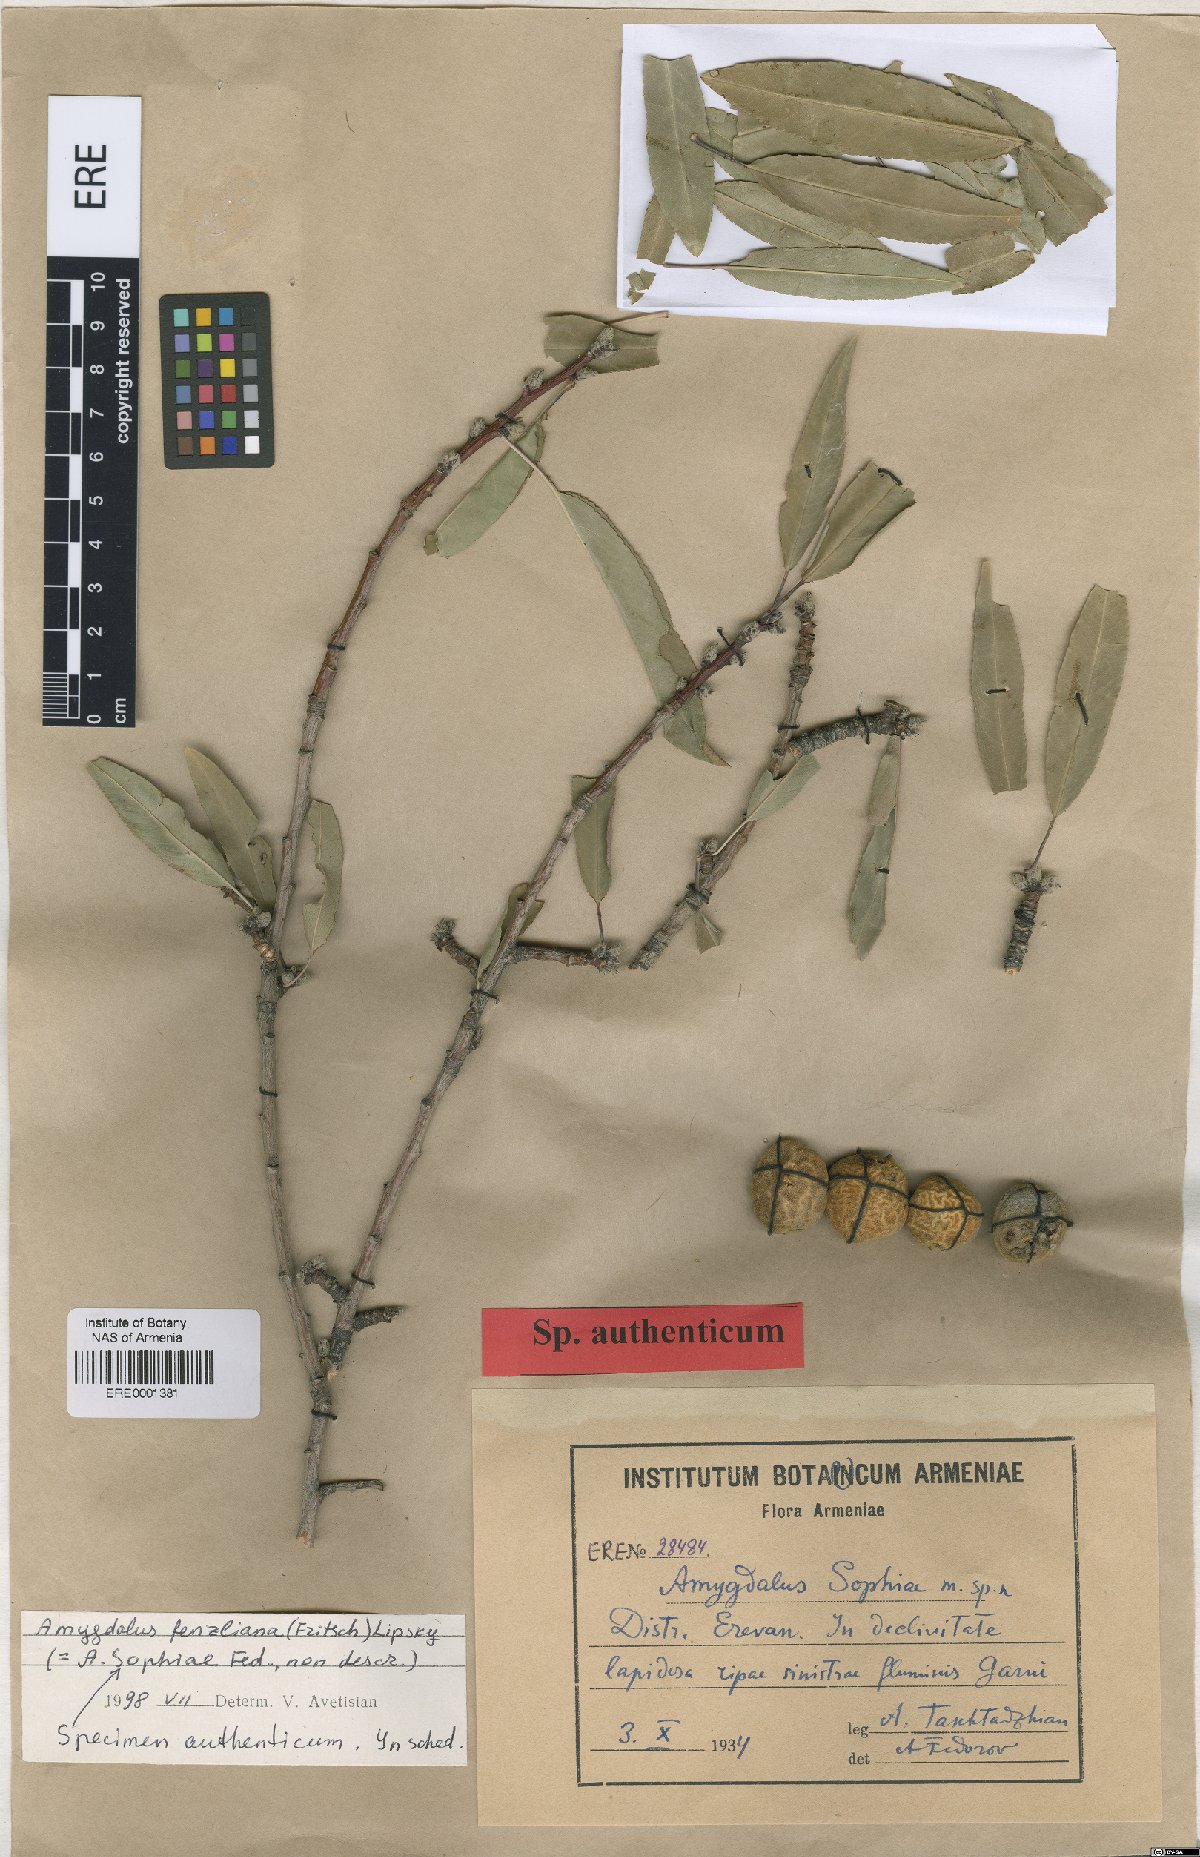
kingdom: Plantae
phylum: Tracheophyta
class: Magnoliopsida
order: Rosales
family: Rosaceae
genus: Prunus
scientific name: Prunus
